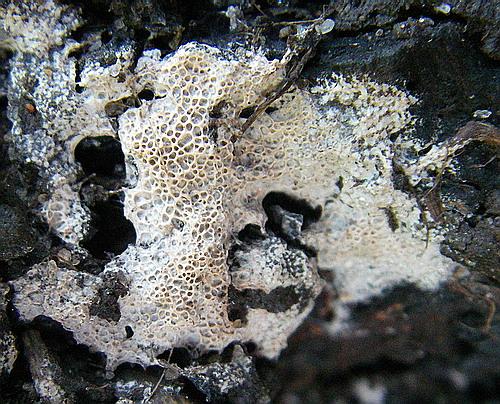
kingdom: Fungi
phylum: Basidiomycota
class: Agaricomycetes
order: Polyporales
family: Irpicaceae
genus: Ceriporia
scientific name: Ceriporia reticulata
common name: netagtig voksporesvamp
